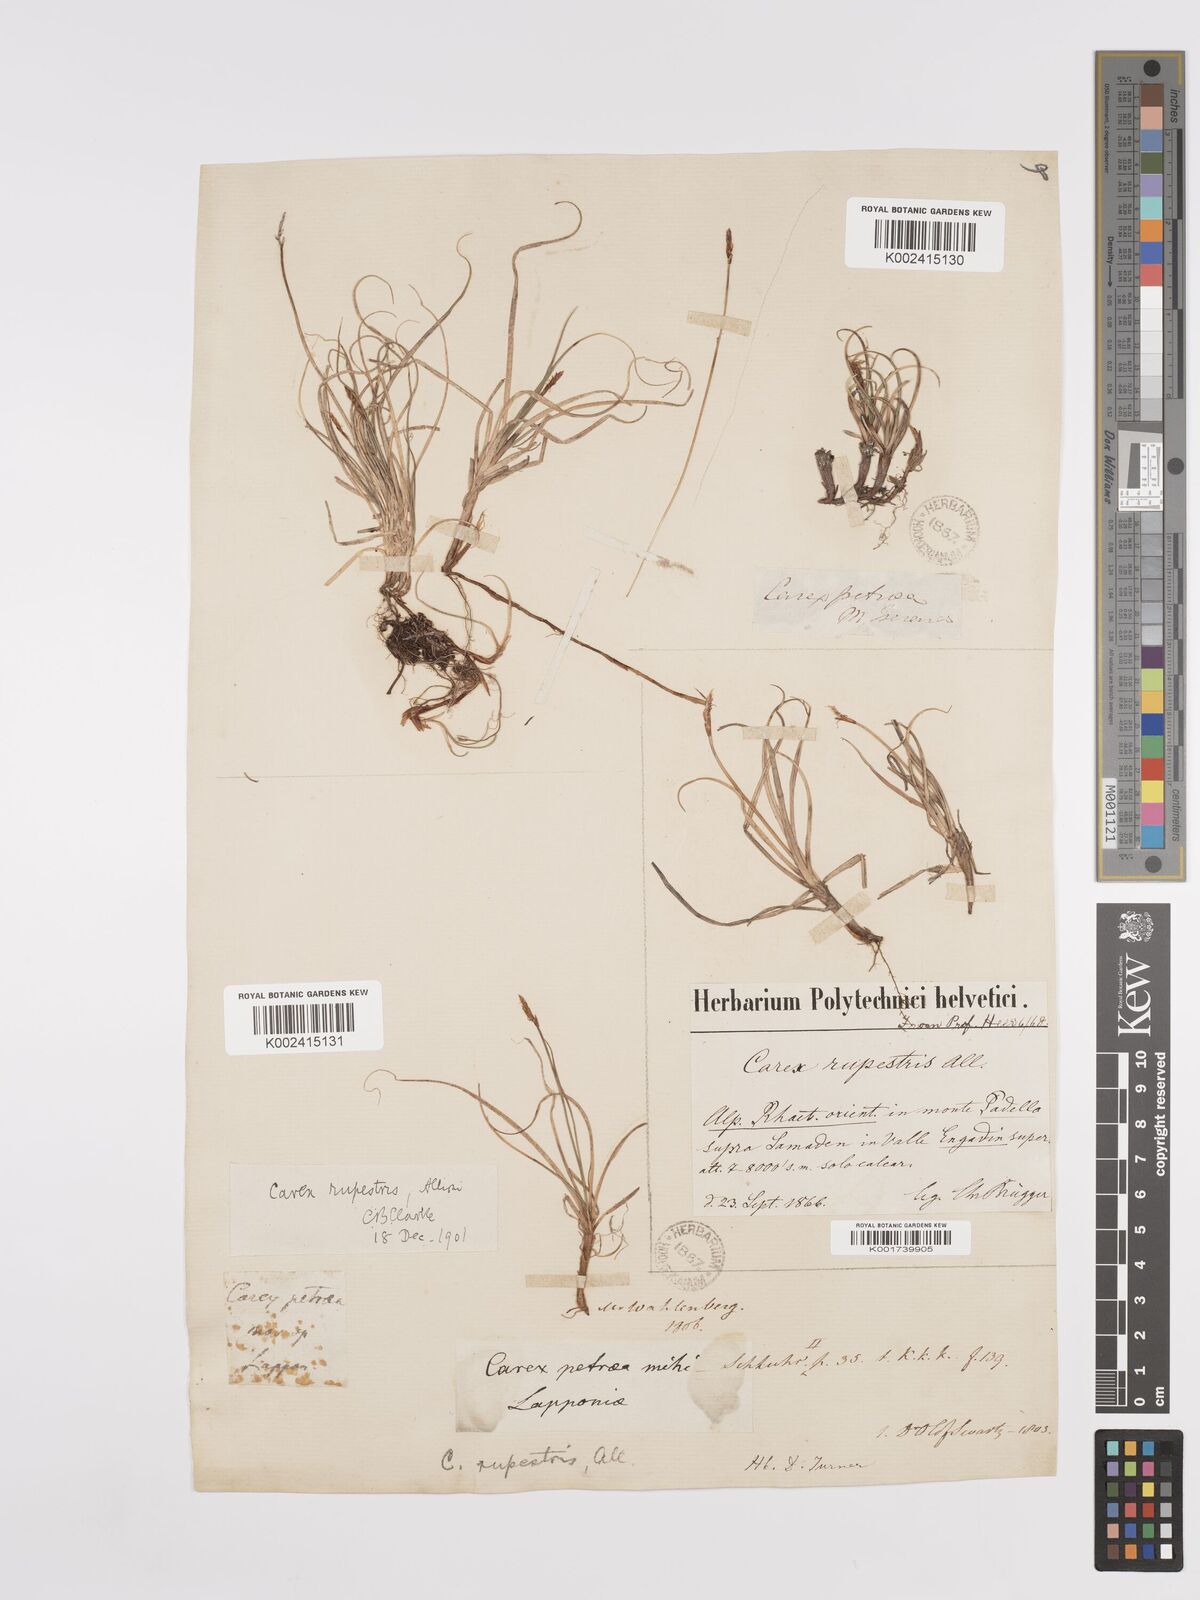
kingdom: Plantae
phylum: Tracheophyta
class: Liliopsida
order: Poales
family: Cyperaceae
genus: Carex
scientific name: Carex rupestris
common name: Rock sedge
